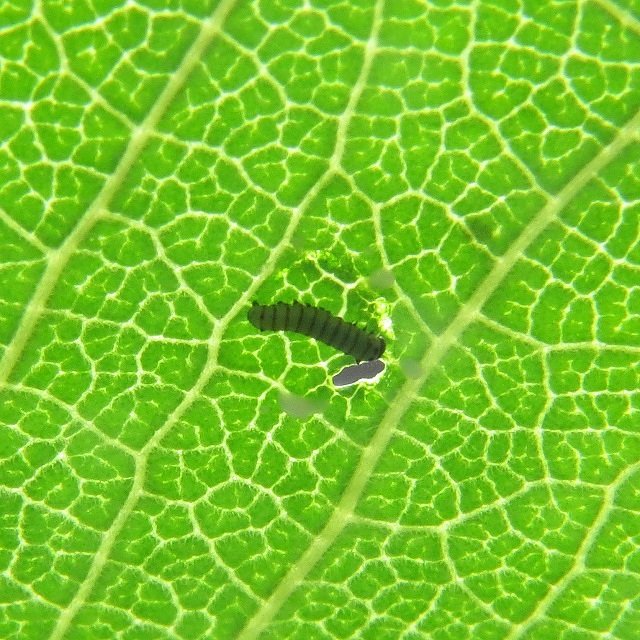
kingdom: Animalia
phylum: Arthropoda
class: Insecta
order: Lepidoptera
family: Nymphalidae
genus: Danaus
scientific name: Danaus plexippus
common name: Monarch
